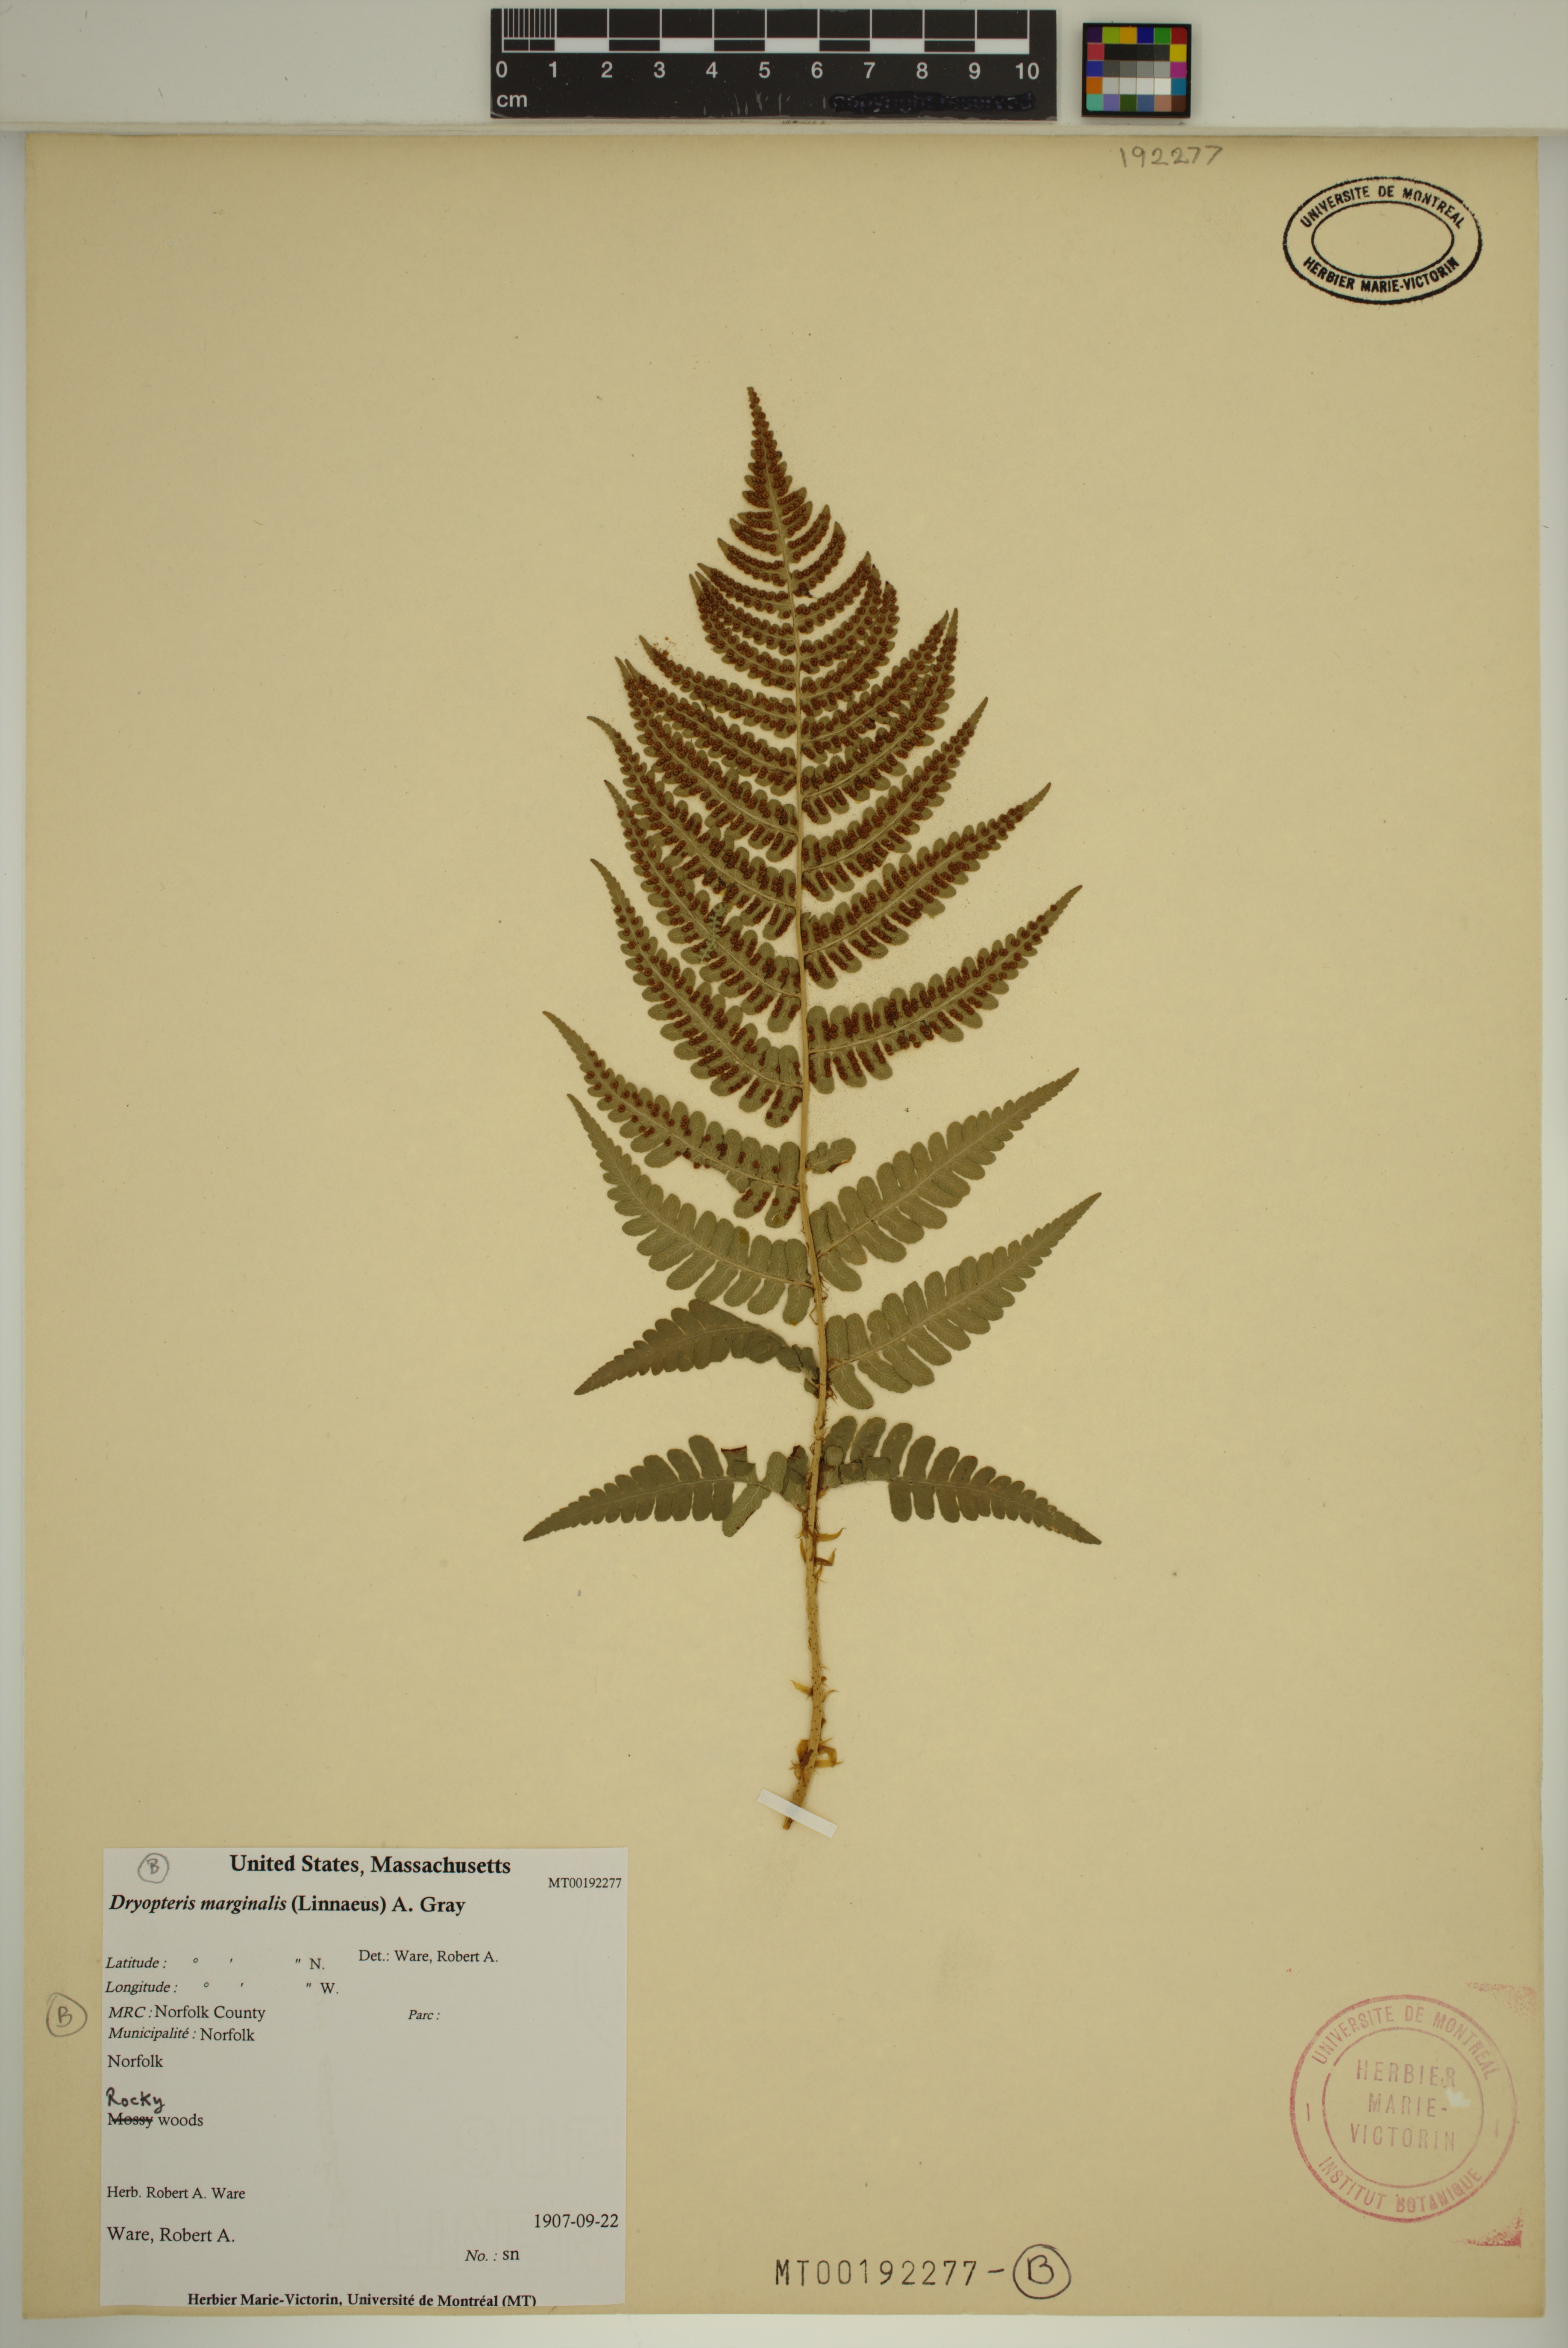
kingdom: Plantae
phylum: Tracheophyta
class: Polypodiopsida
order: Polypodiales
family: Dryopteridaceae
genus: Dryopteris
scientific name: Dryopteris marginalis
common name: Marginal wood fern
